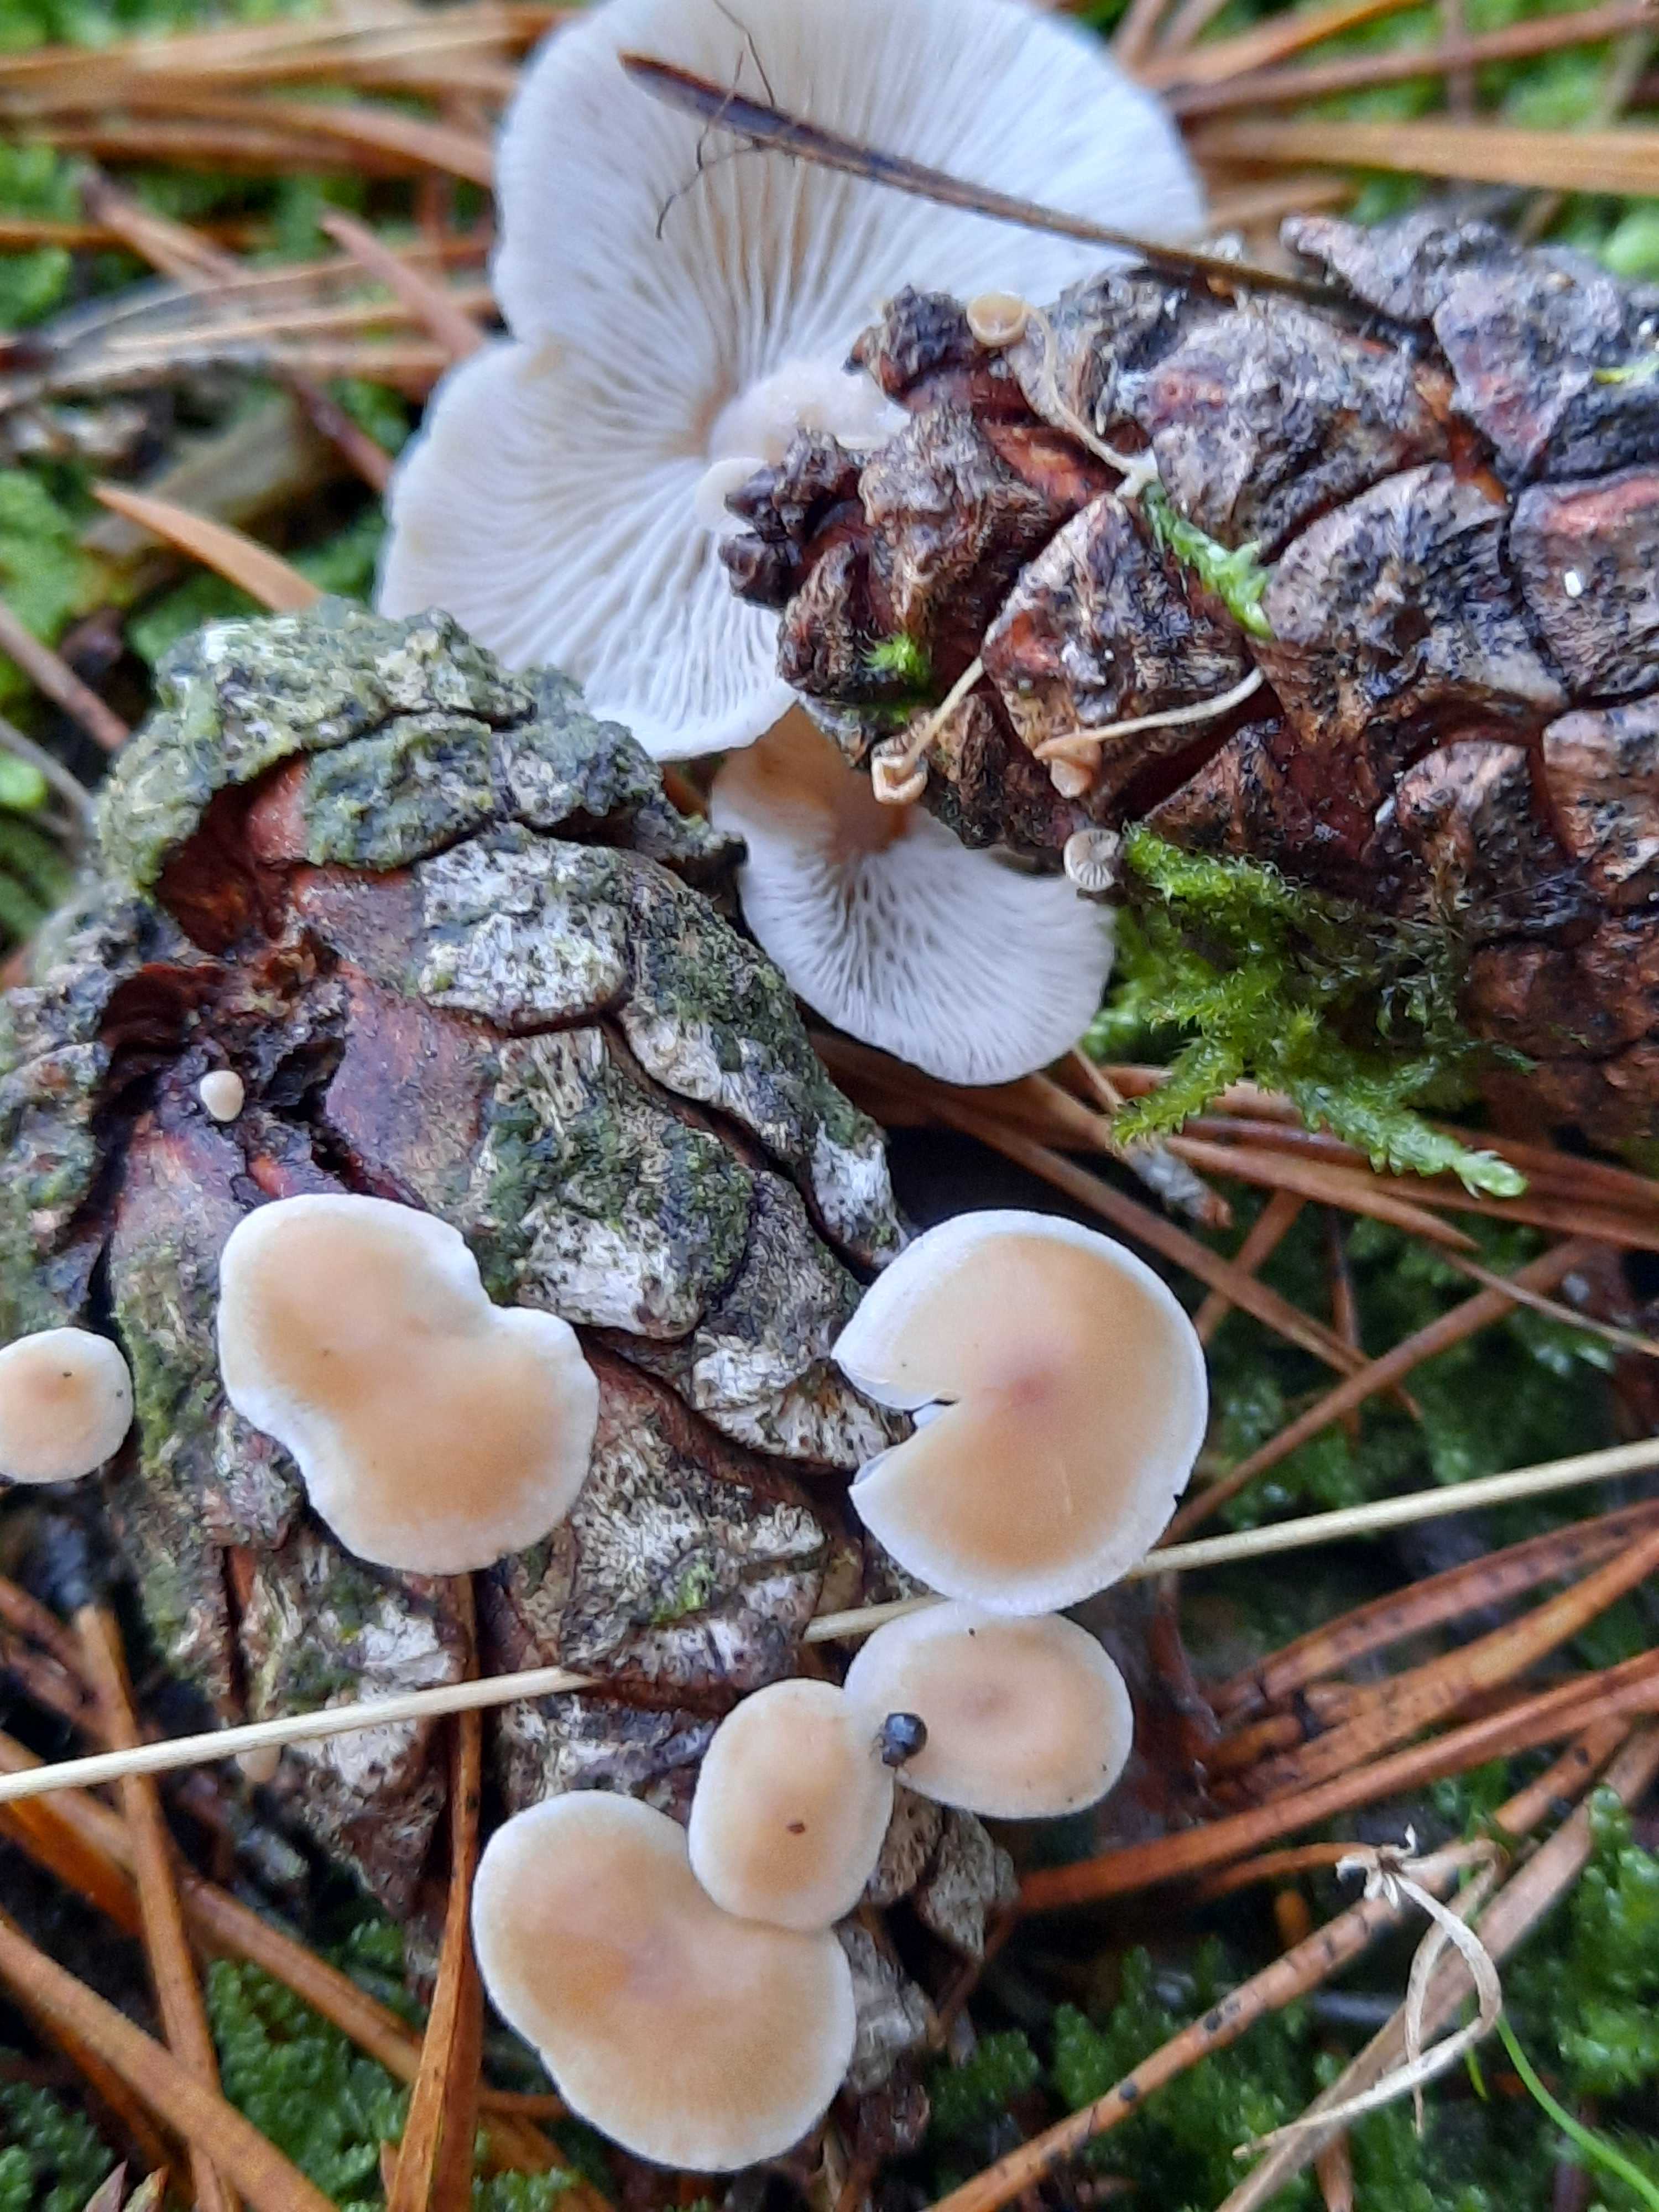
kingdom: Fungi
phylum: Basidiomycota
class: Agaricomycetes
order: Agaricales
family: Marasmiaceae
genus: Baeospora
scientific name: Baeospora myosura
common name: koglebruskhat
